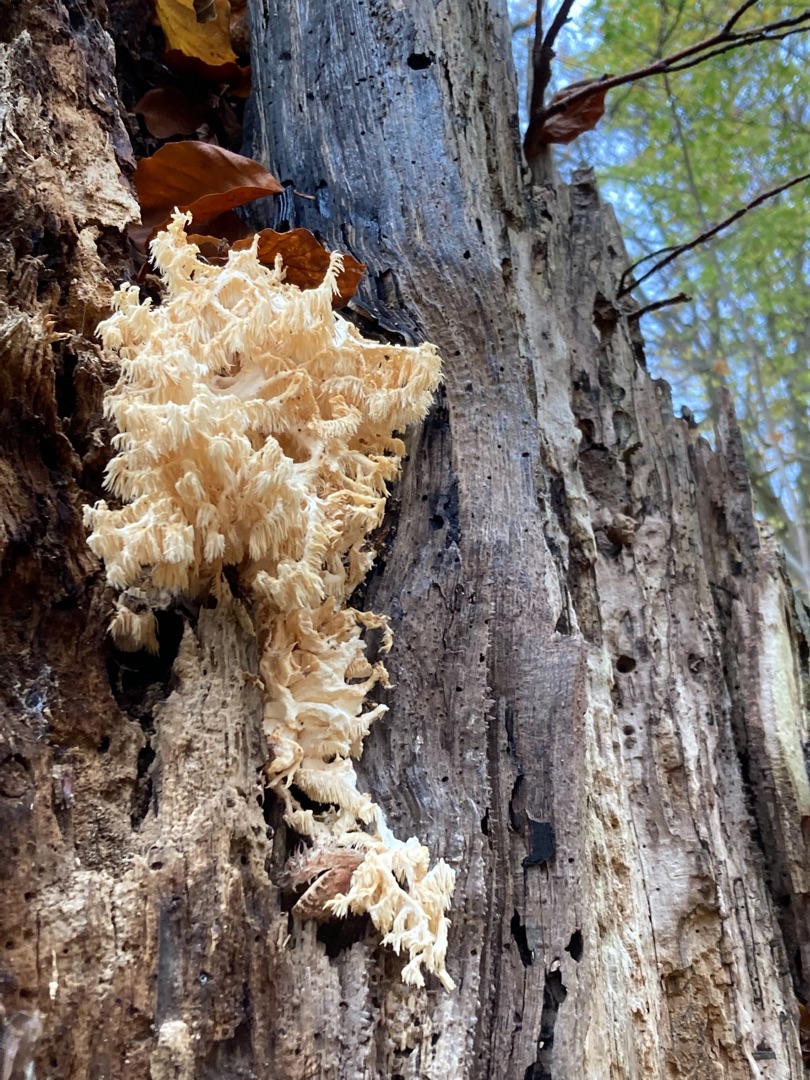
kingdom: Fungi
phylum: Basidiomycota
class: Agaricomycetes
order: Russulales
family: Hericiaceae
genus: Hericium
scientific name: Hericium coralloides
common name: Koralpigsvamp
